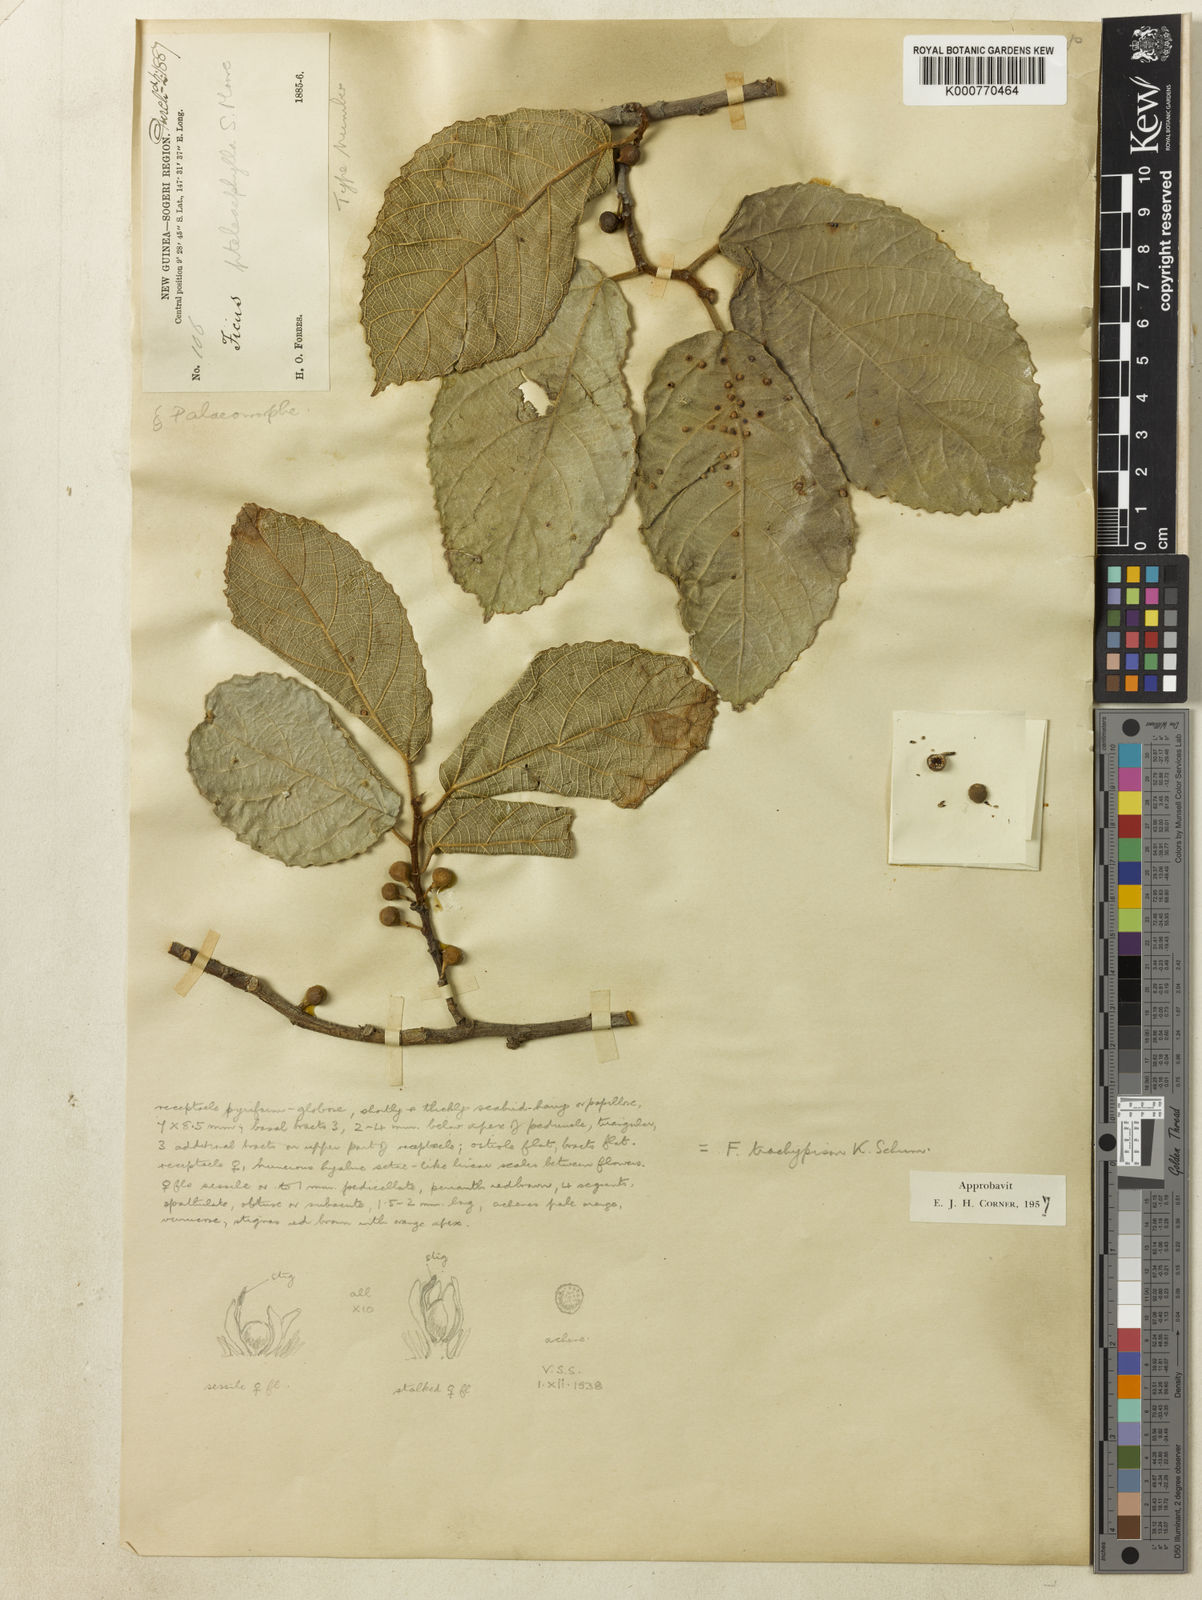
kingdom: Plantae
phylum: Tracheophyta
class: Magnoliopsida
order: Rosales
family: Moraceae
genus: Ficus
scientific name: Ficus trachypison
